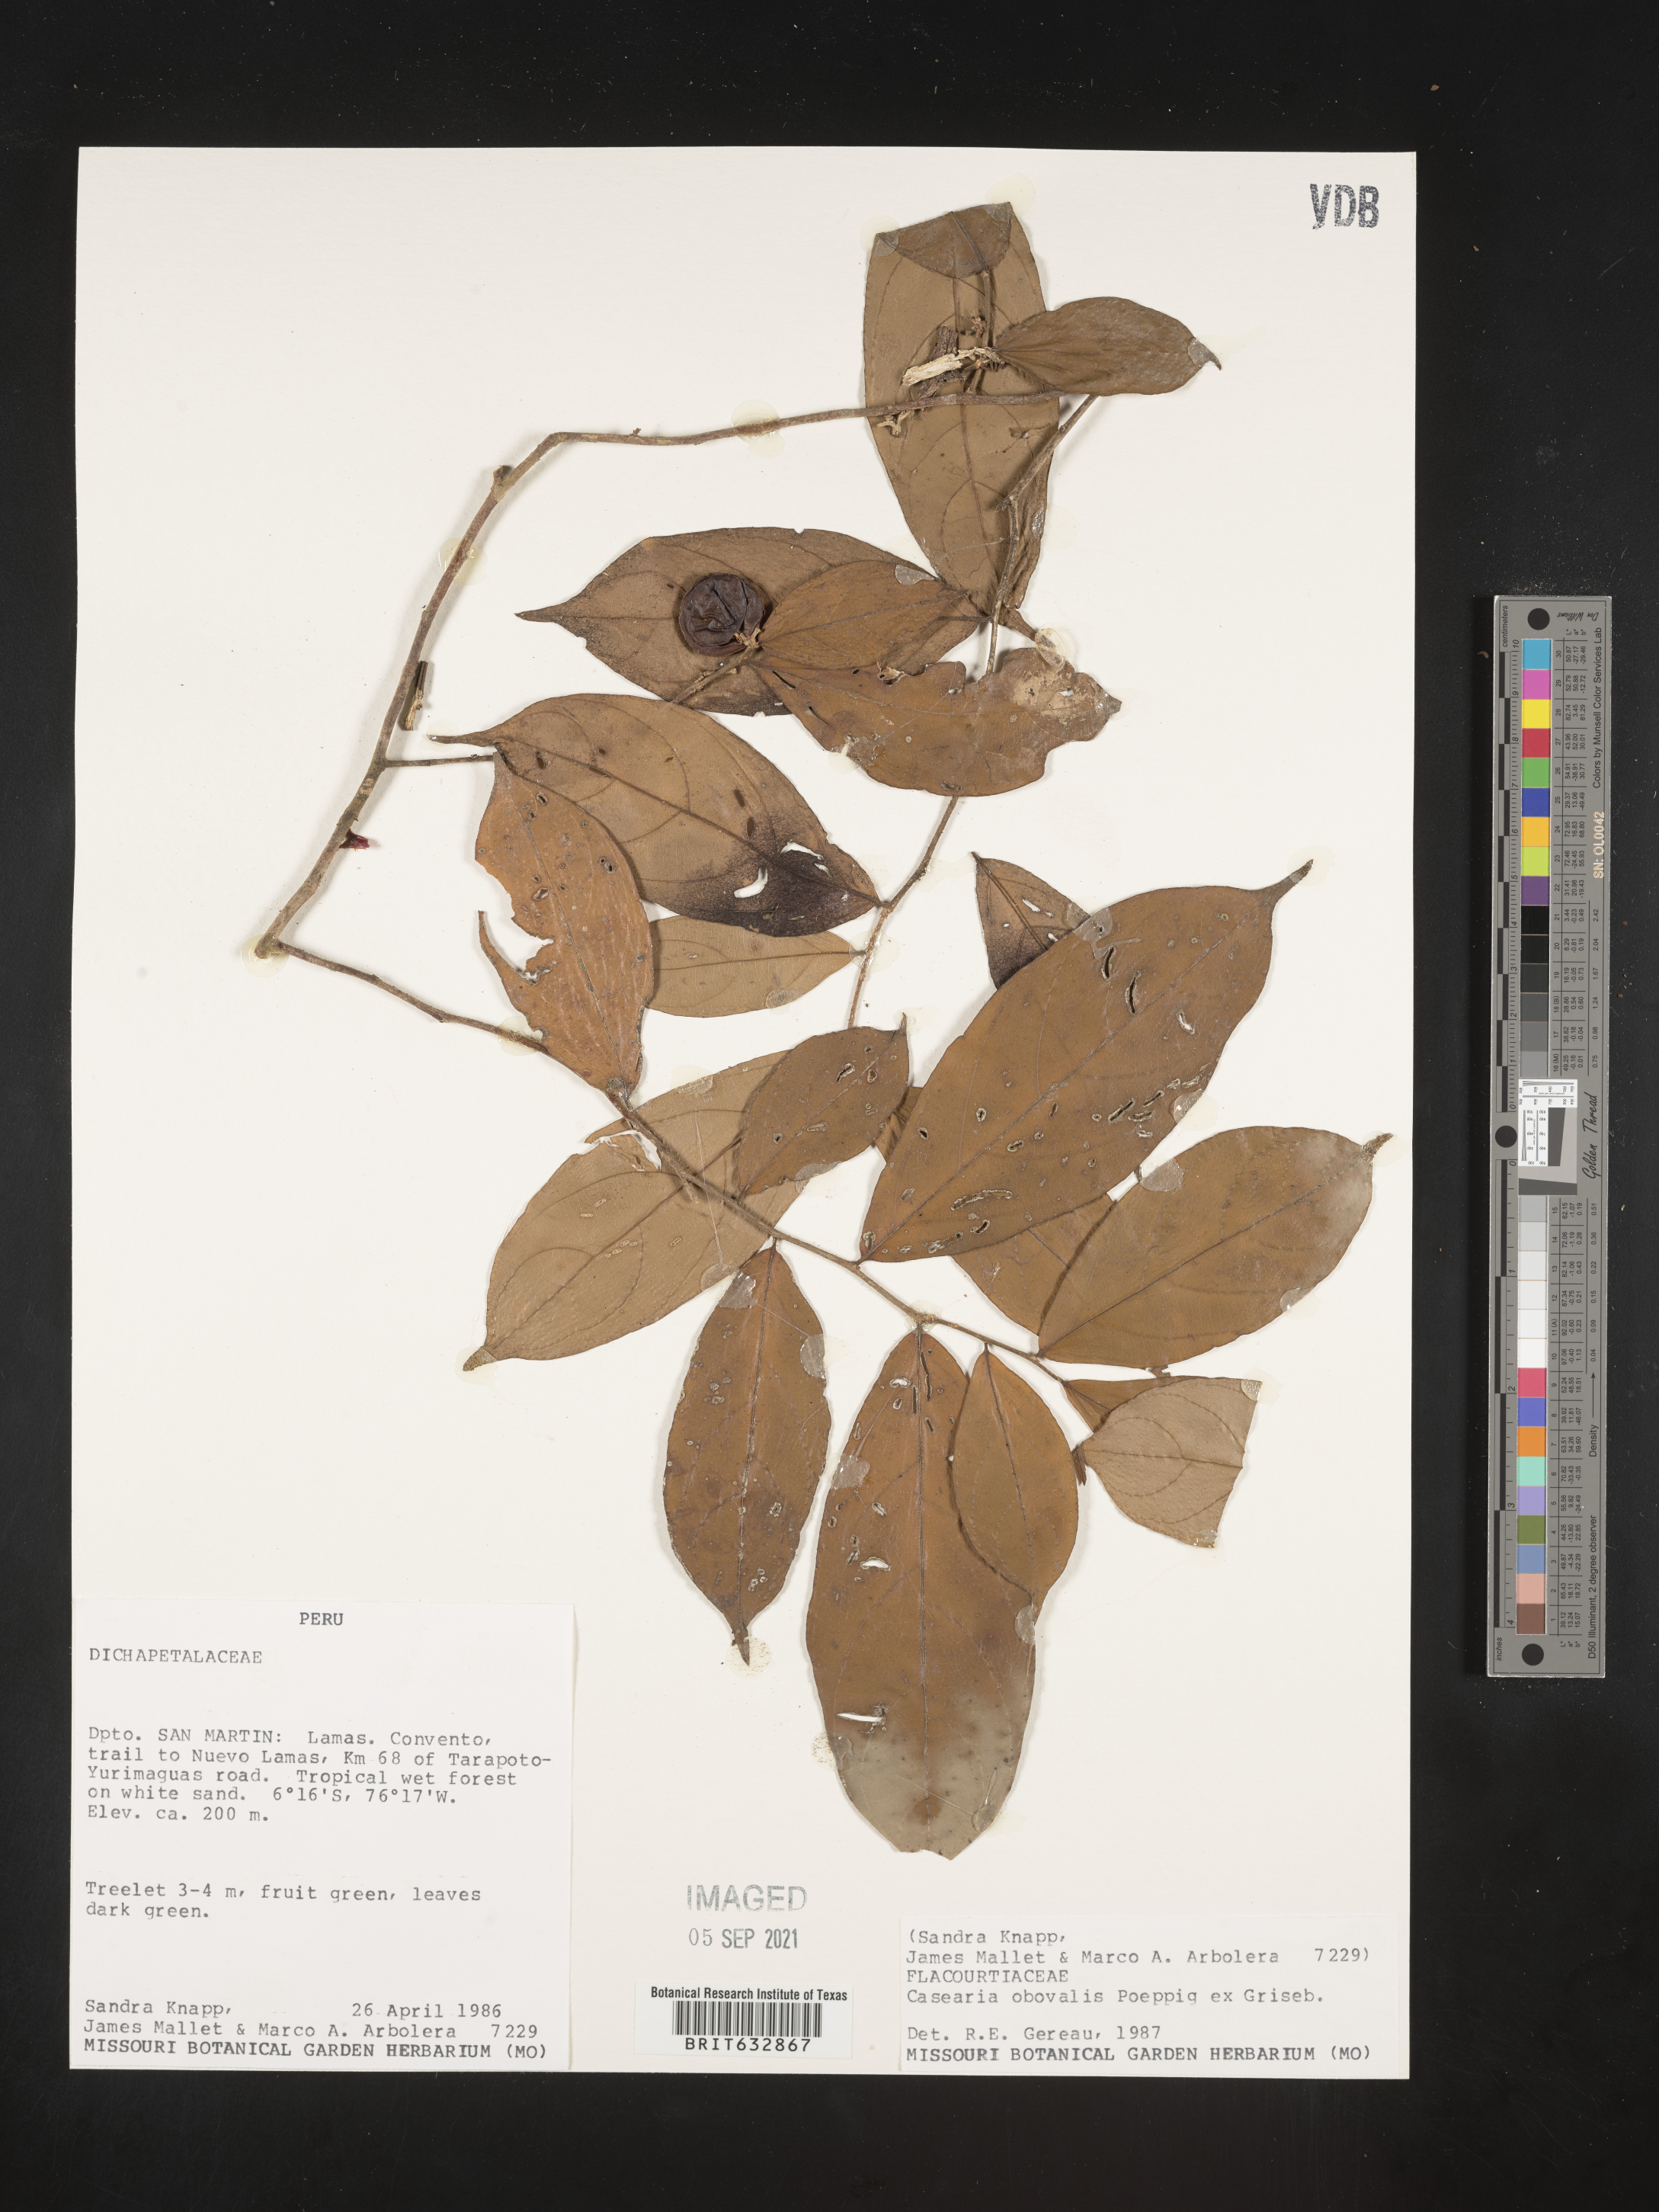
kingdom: Plantae
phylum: Tracheophyta
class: Magnoliopsida
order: Malpighiales
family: Salicaceae
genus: Casearia
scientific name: Casearia
